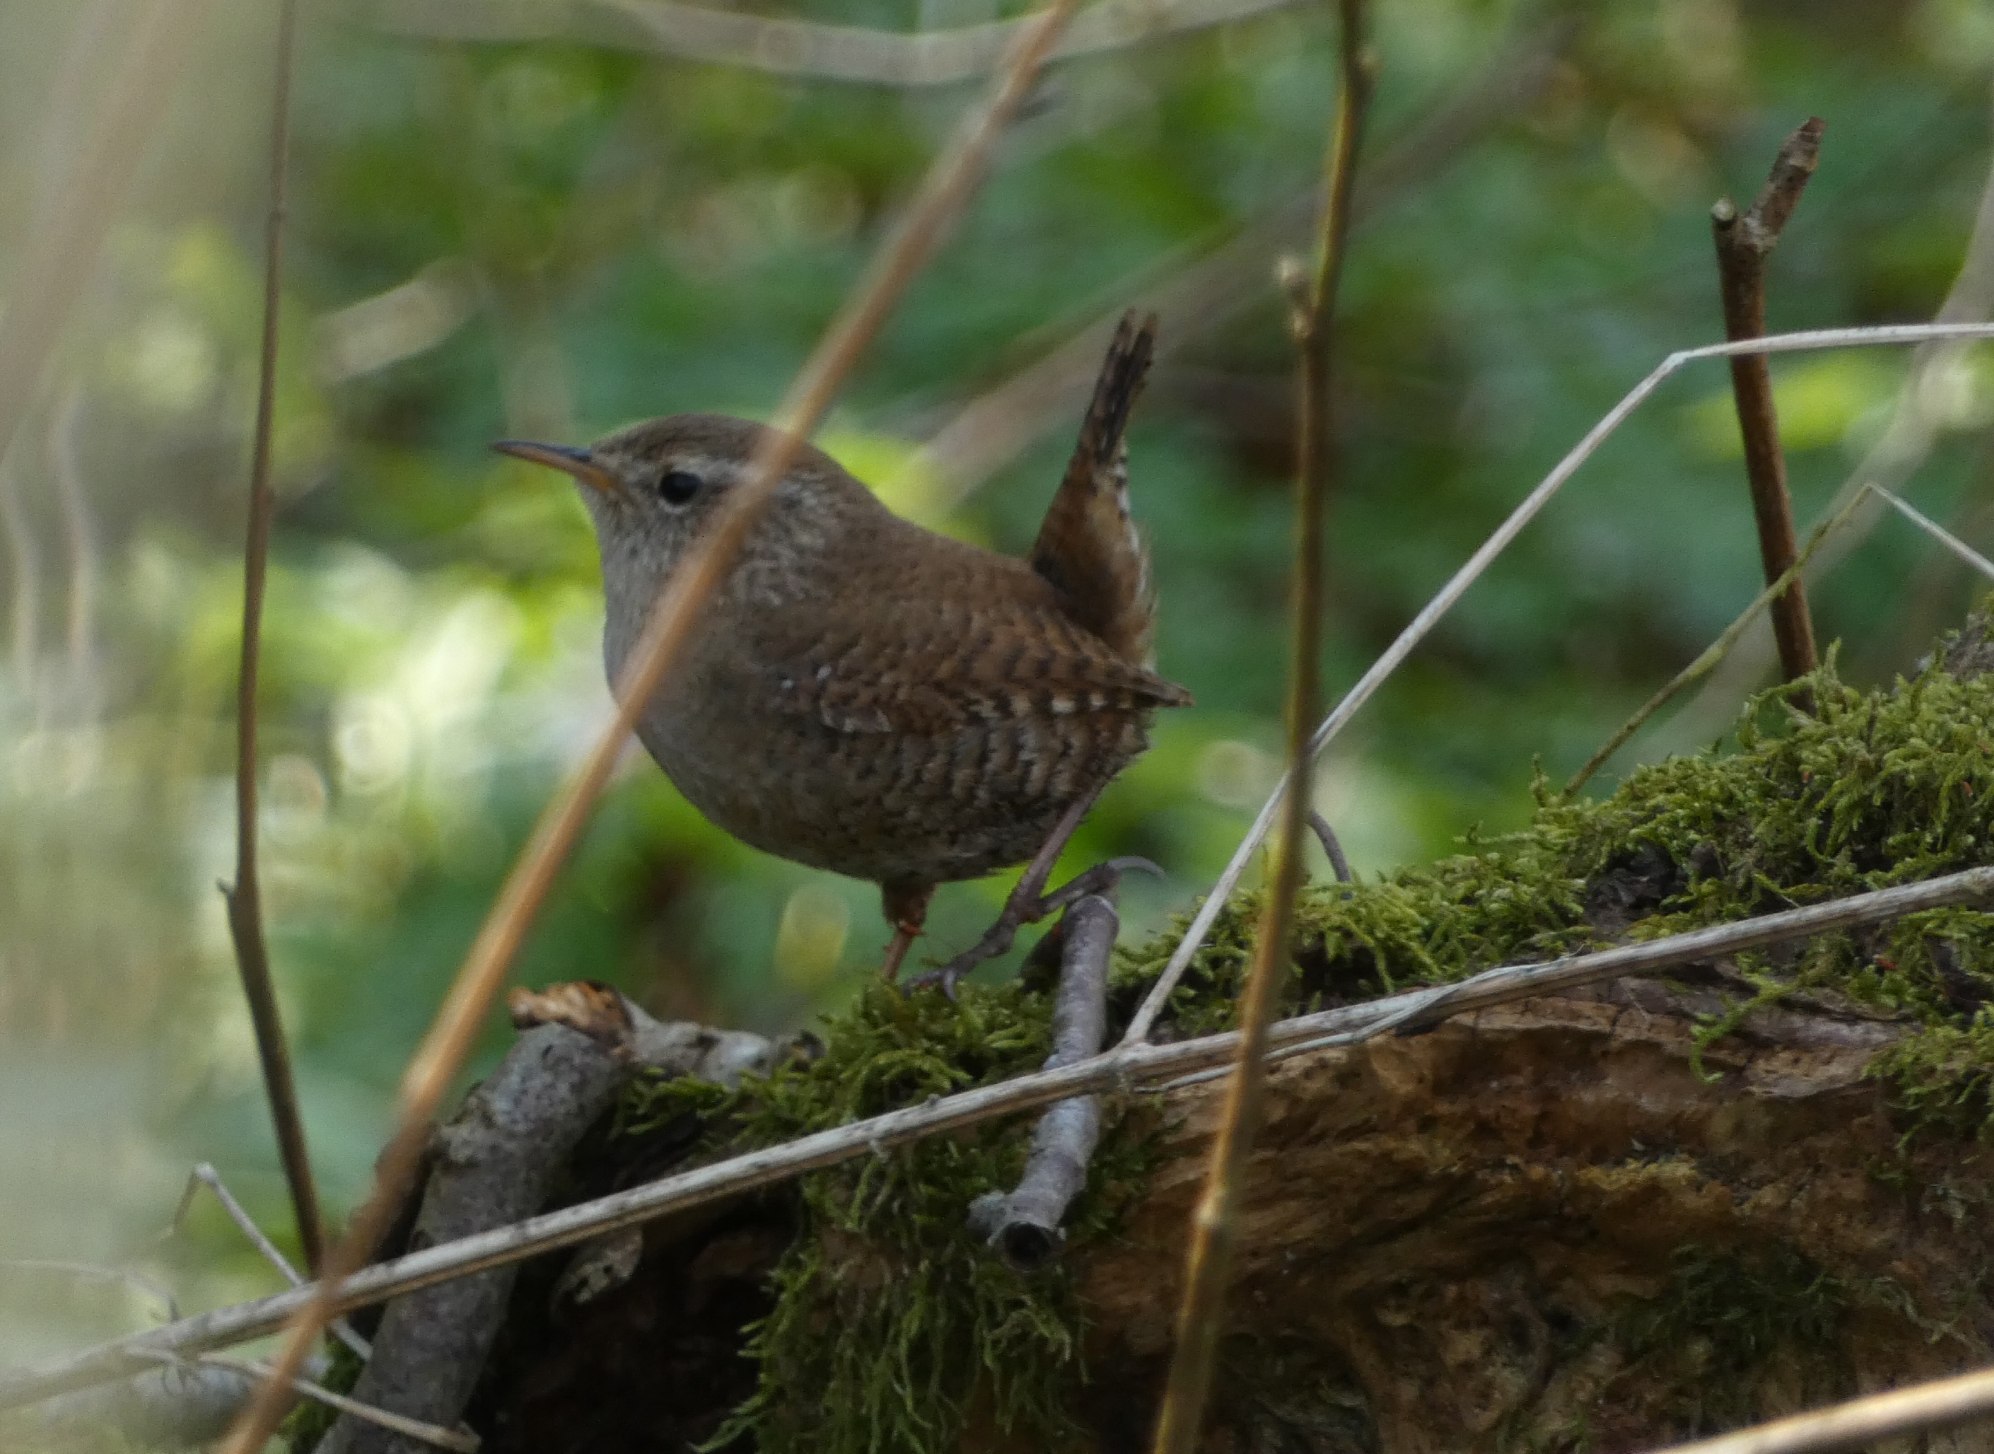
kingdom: Animalia
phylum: Chordata
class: Aves
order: Passeriformes
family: Troglodytidae
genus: Troglodytes
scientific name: Troglodytes troglodytes
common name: Gærdesmutte
